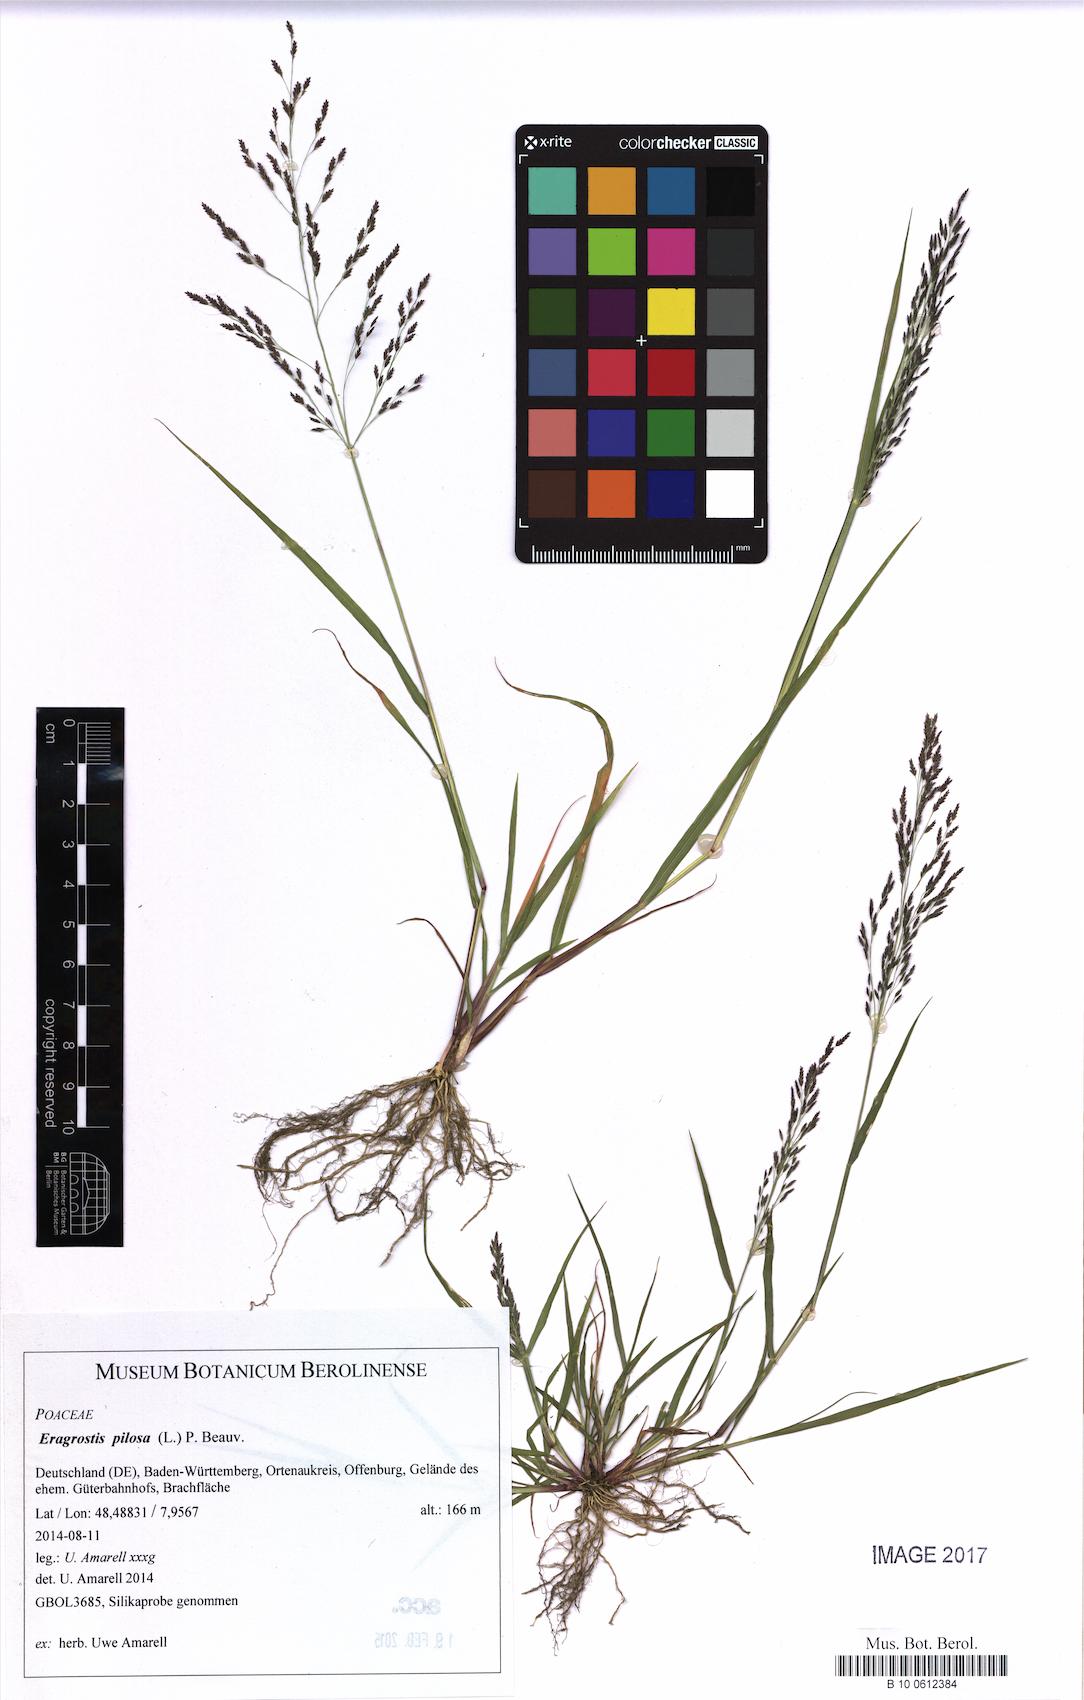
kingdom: Plantae
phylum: Tracheophyta
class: Liliopsida
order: Poales
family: Poaceae
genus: Eragrostis
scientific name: Eragrostis pilosa
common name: Indian lovegrass
